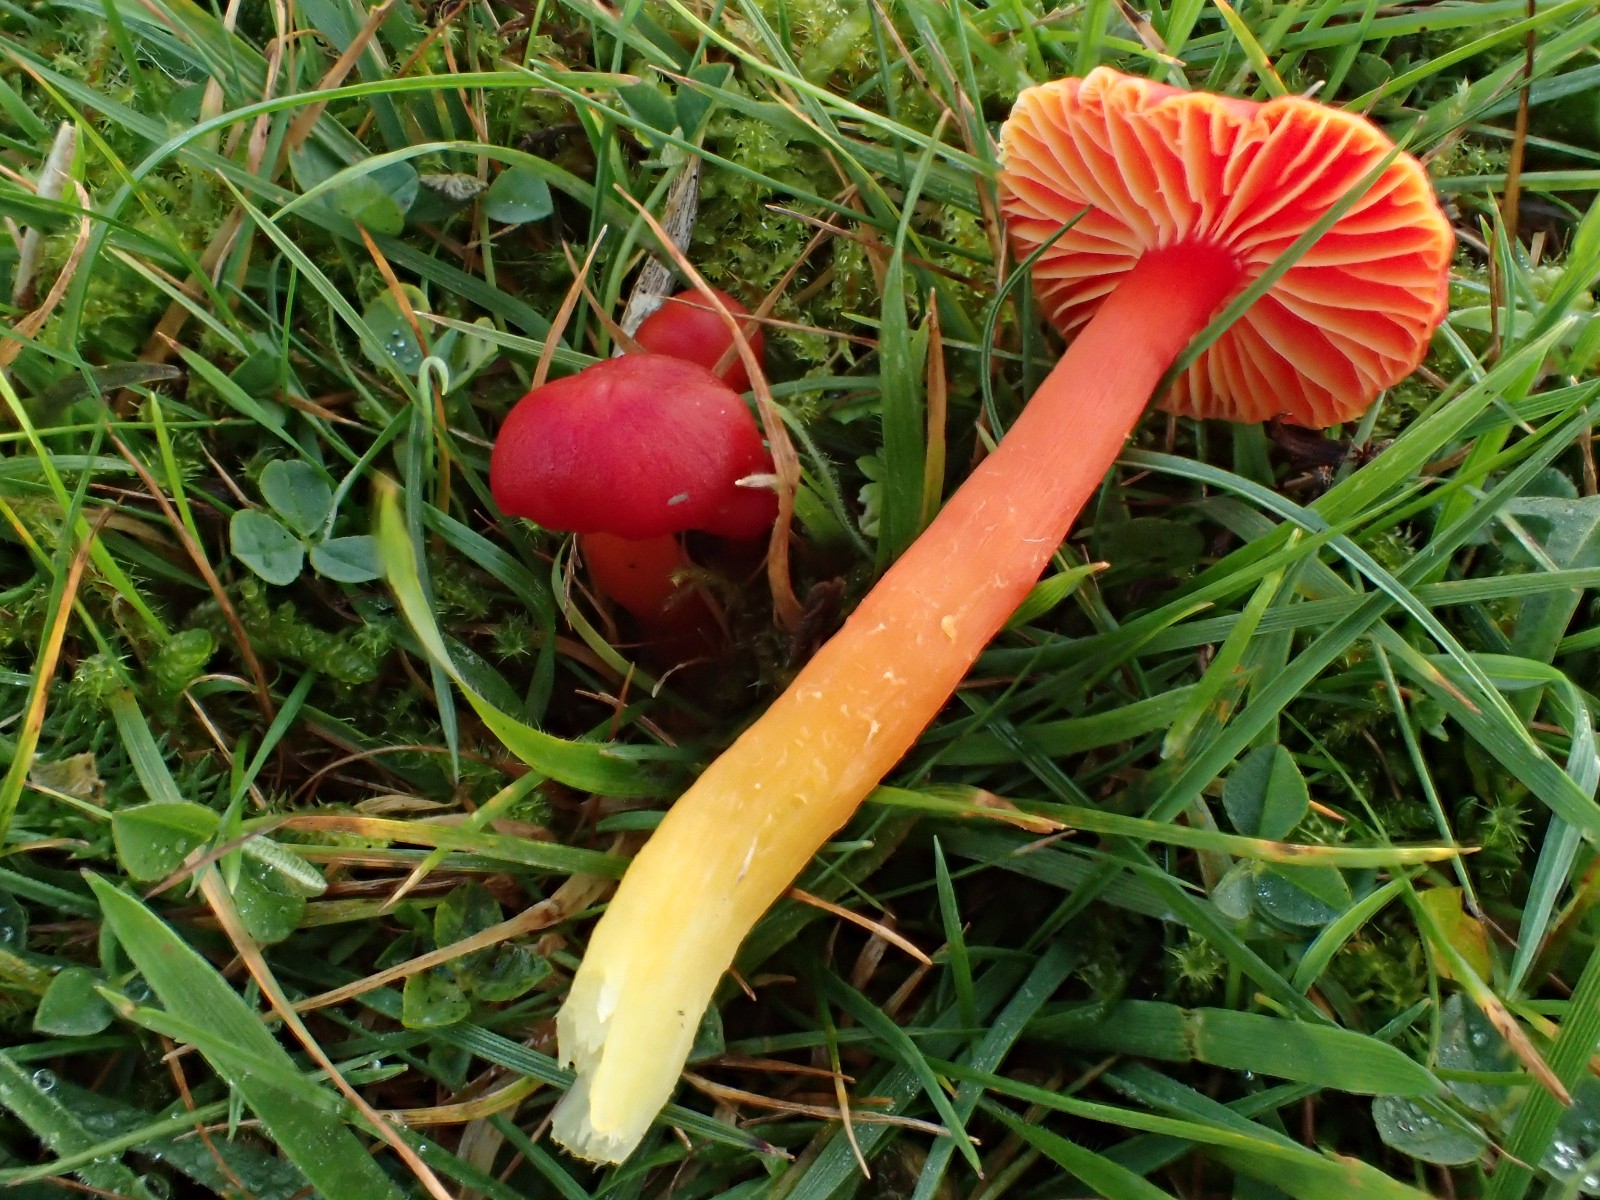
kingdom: Fungi
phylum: Basidiomycota
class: Agaricomycetes
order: Agaricales
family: Hygrophoraceae
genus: Hygrocybe
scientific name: Hygrocybe coccinea
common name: cinnober-vokshat
